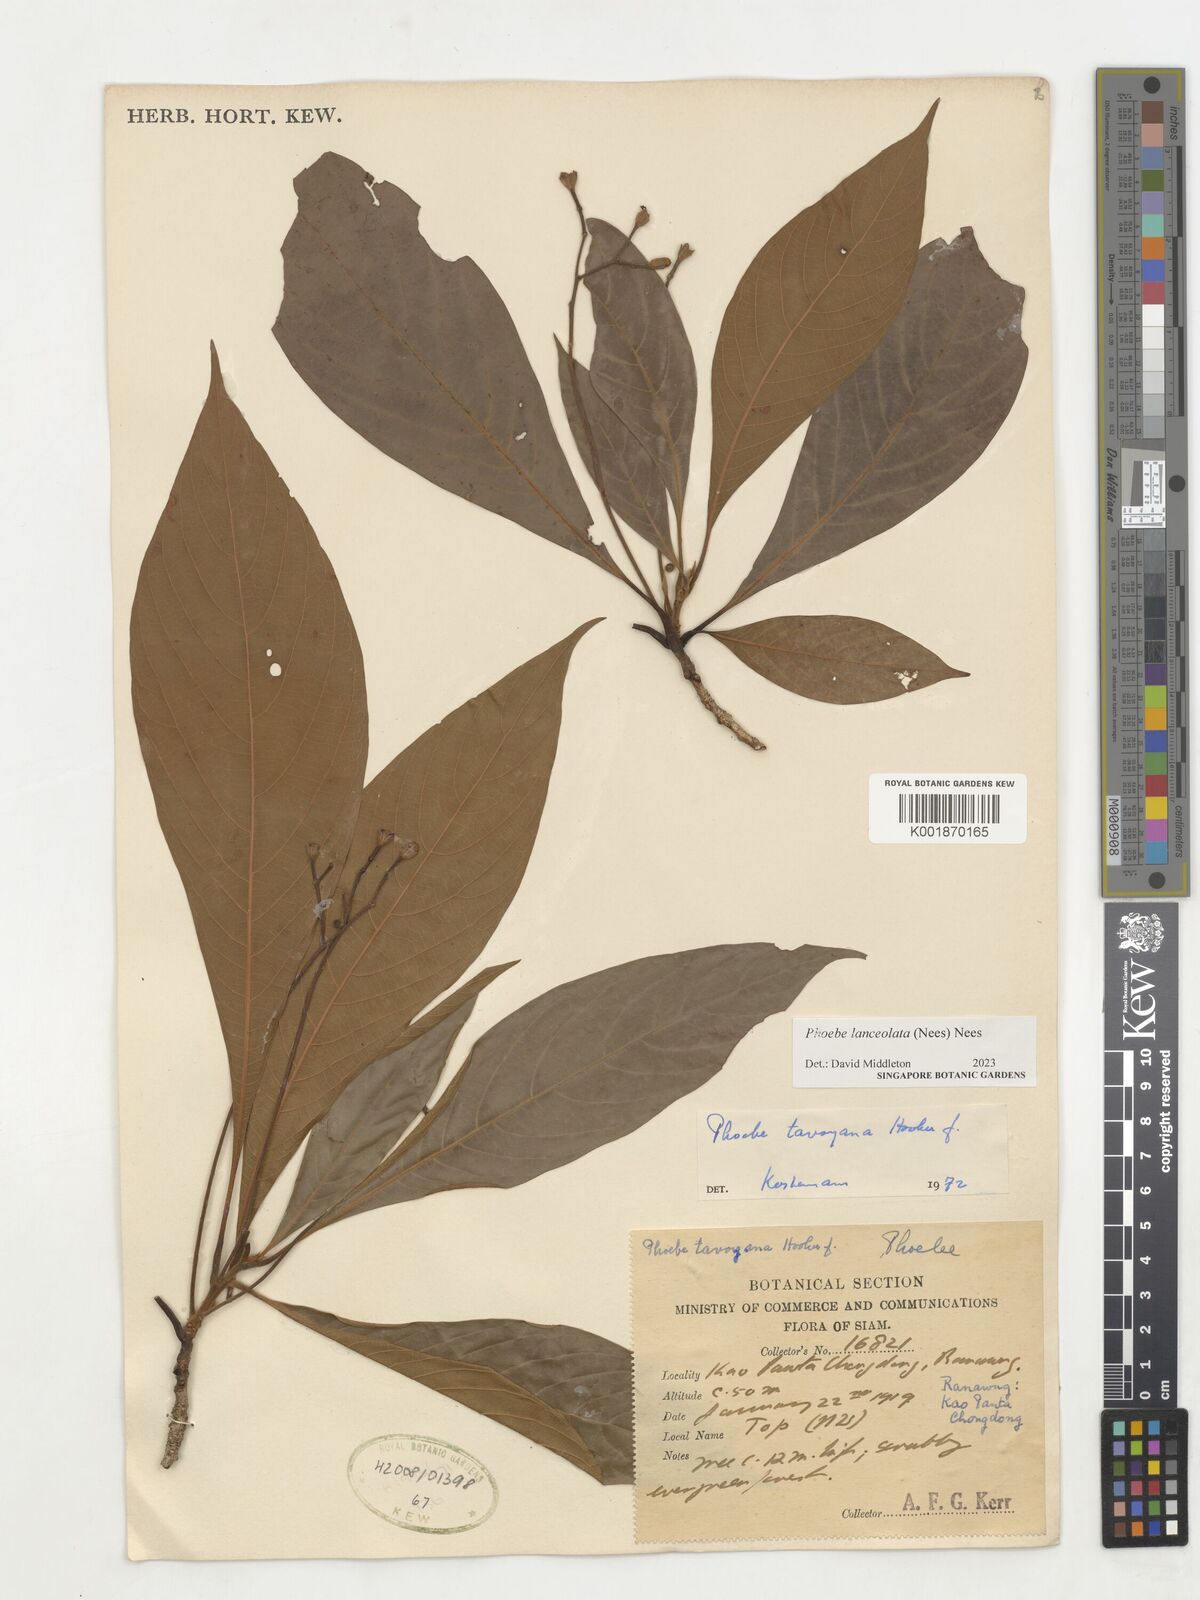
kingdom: Plantae
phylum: Tracheophyta
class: Magnoliopsida
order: Laurales
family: Lauraceae
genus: Phoebe
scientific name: Phoebe lanceolata
